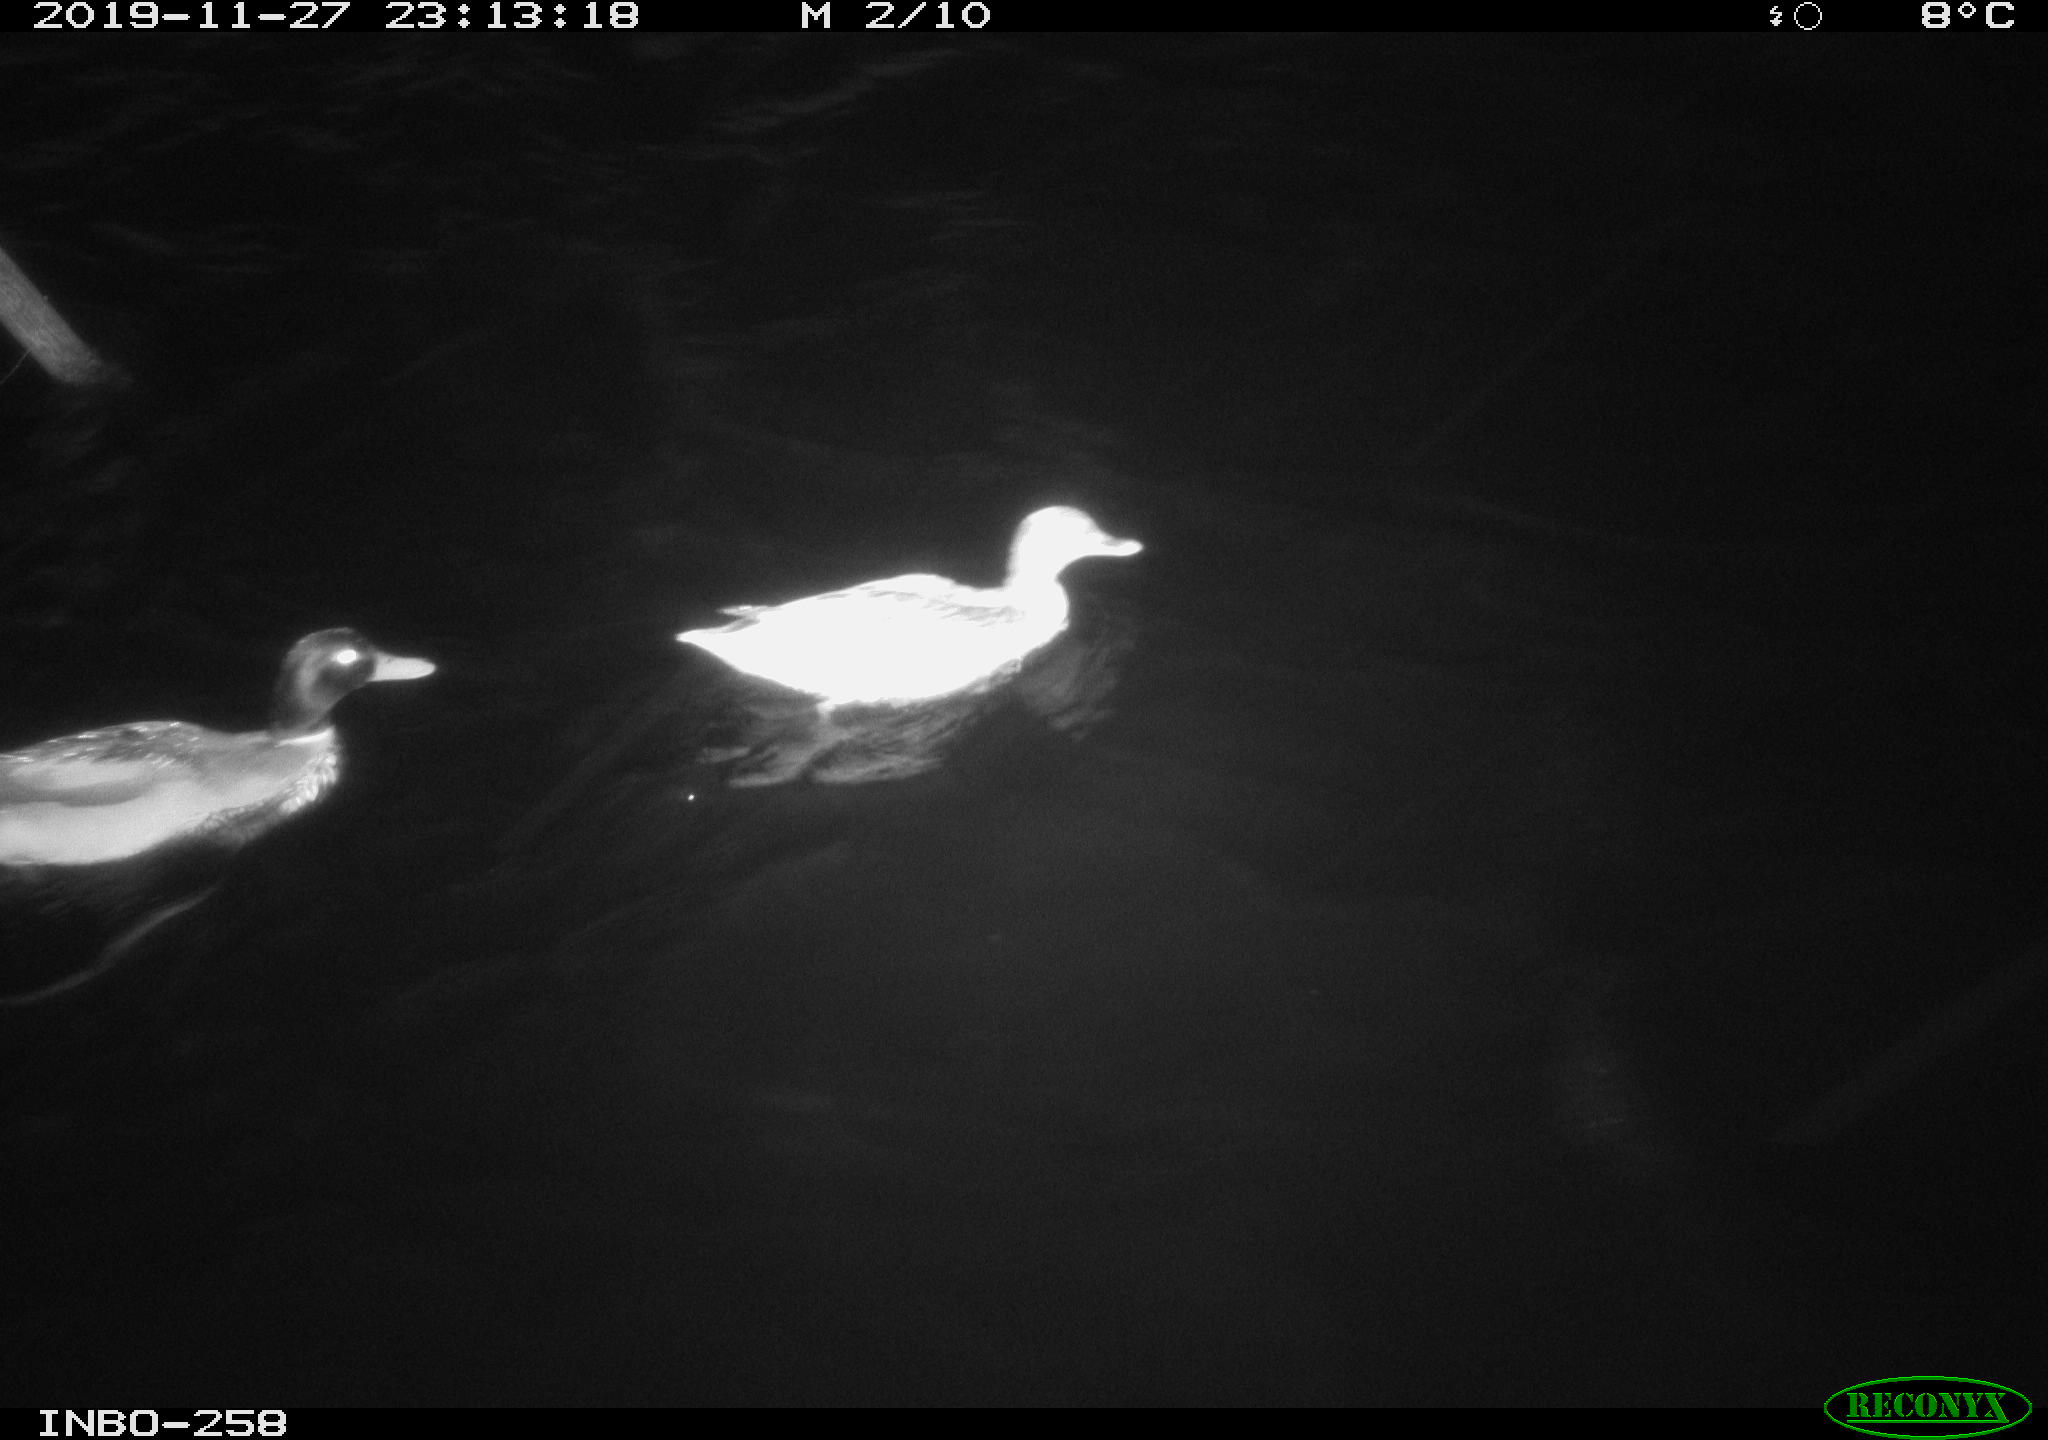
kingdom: Animalia
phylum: Chordata
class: Aves
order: Anseriformes
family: Anatidae
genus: Anas
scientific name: Anas platyrhynchos
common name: Mallard
